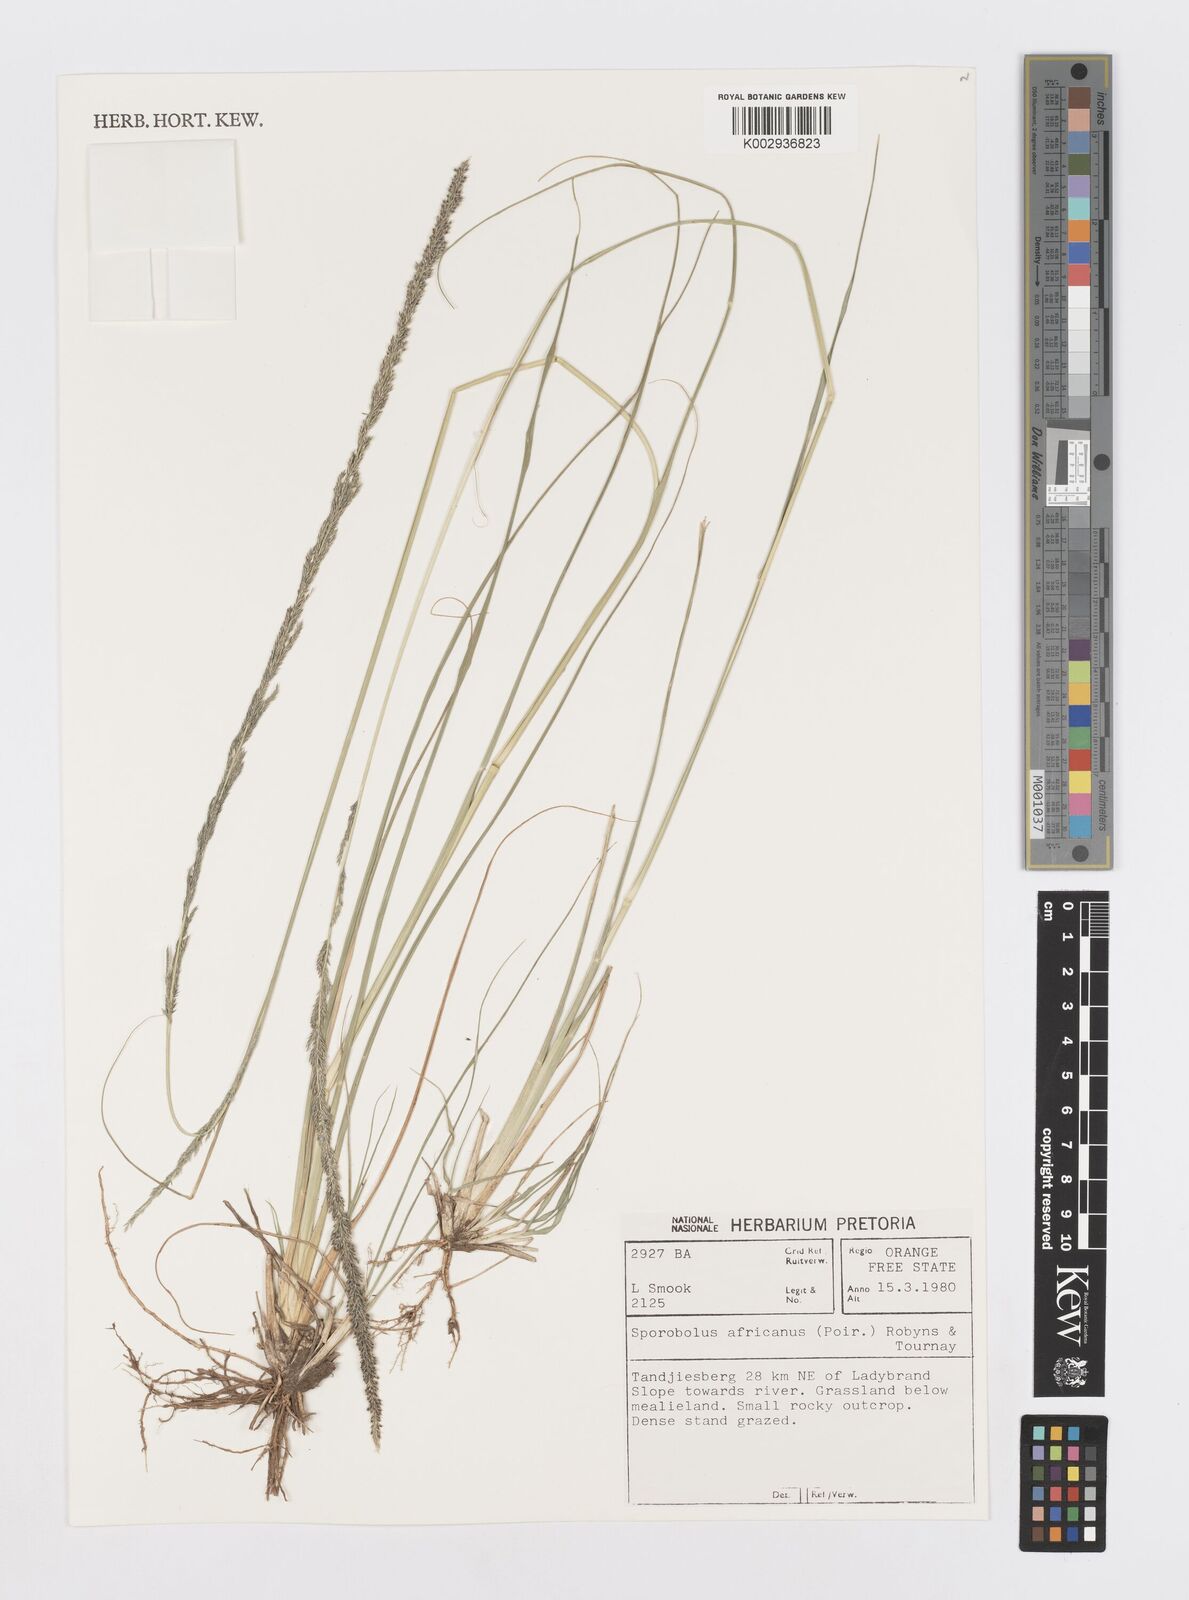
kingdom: Plantae
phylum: Tracheophyta
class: Liliopsida
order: Poales
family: Poaceae
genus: Sporobolus
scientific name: Sporobolus africanus
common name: African dropseed
